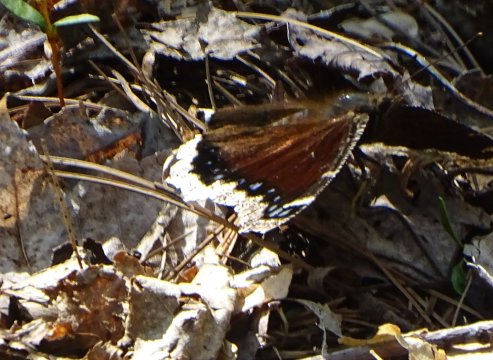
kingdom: Animalia
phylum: Arthropoda
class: Insecta
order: Lepidoptera
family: Nymphalidae
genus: Nymphalis
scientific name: Nymphalis antiopa
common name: Mourning Cloak
